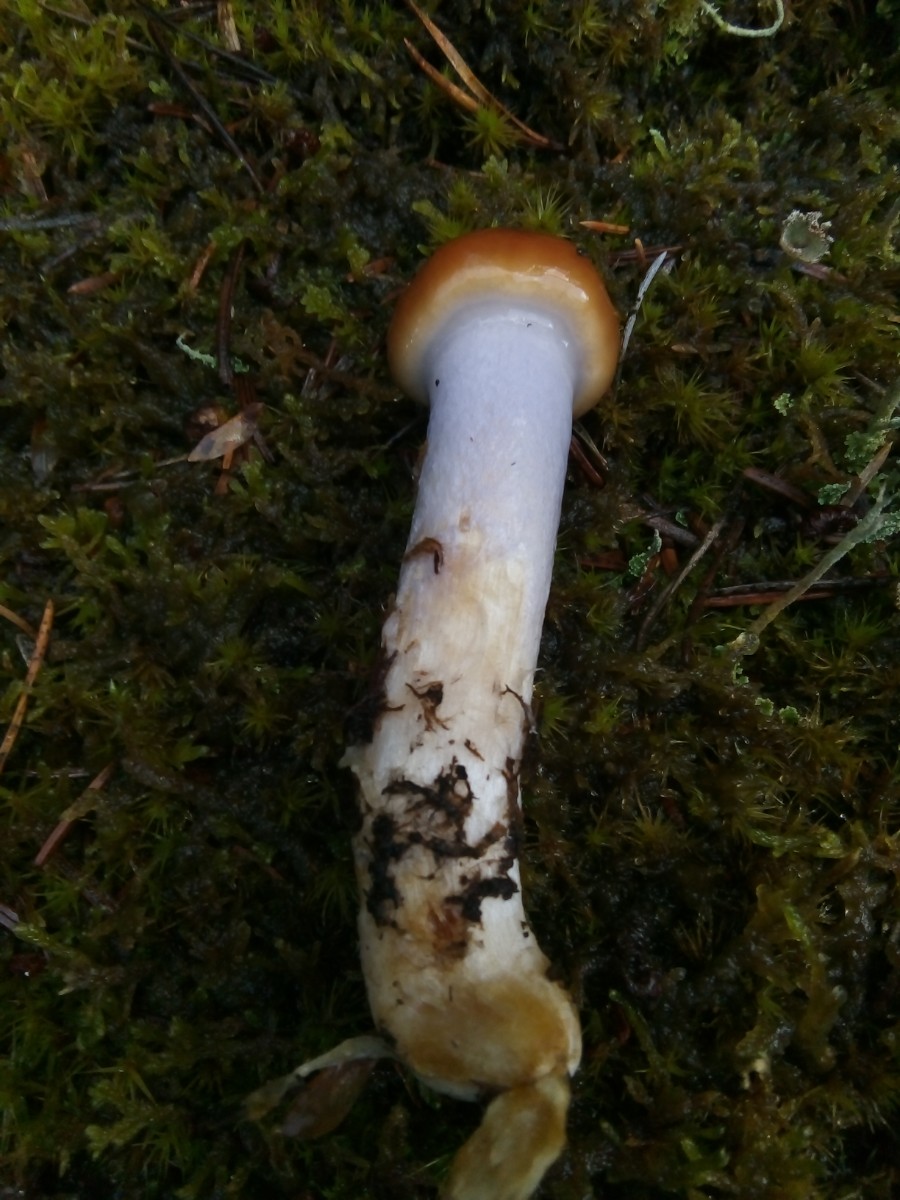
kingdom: Fungi
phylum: Basidiomycota
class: Agaricomycetes
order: Agaricales
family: Cortinariaceae
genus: Cortinarius
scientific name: Cortinarius collinitus
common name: spættet slørhat
